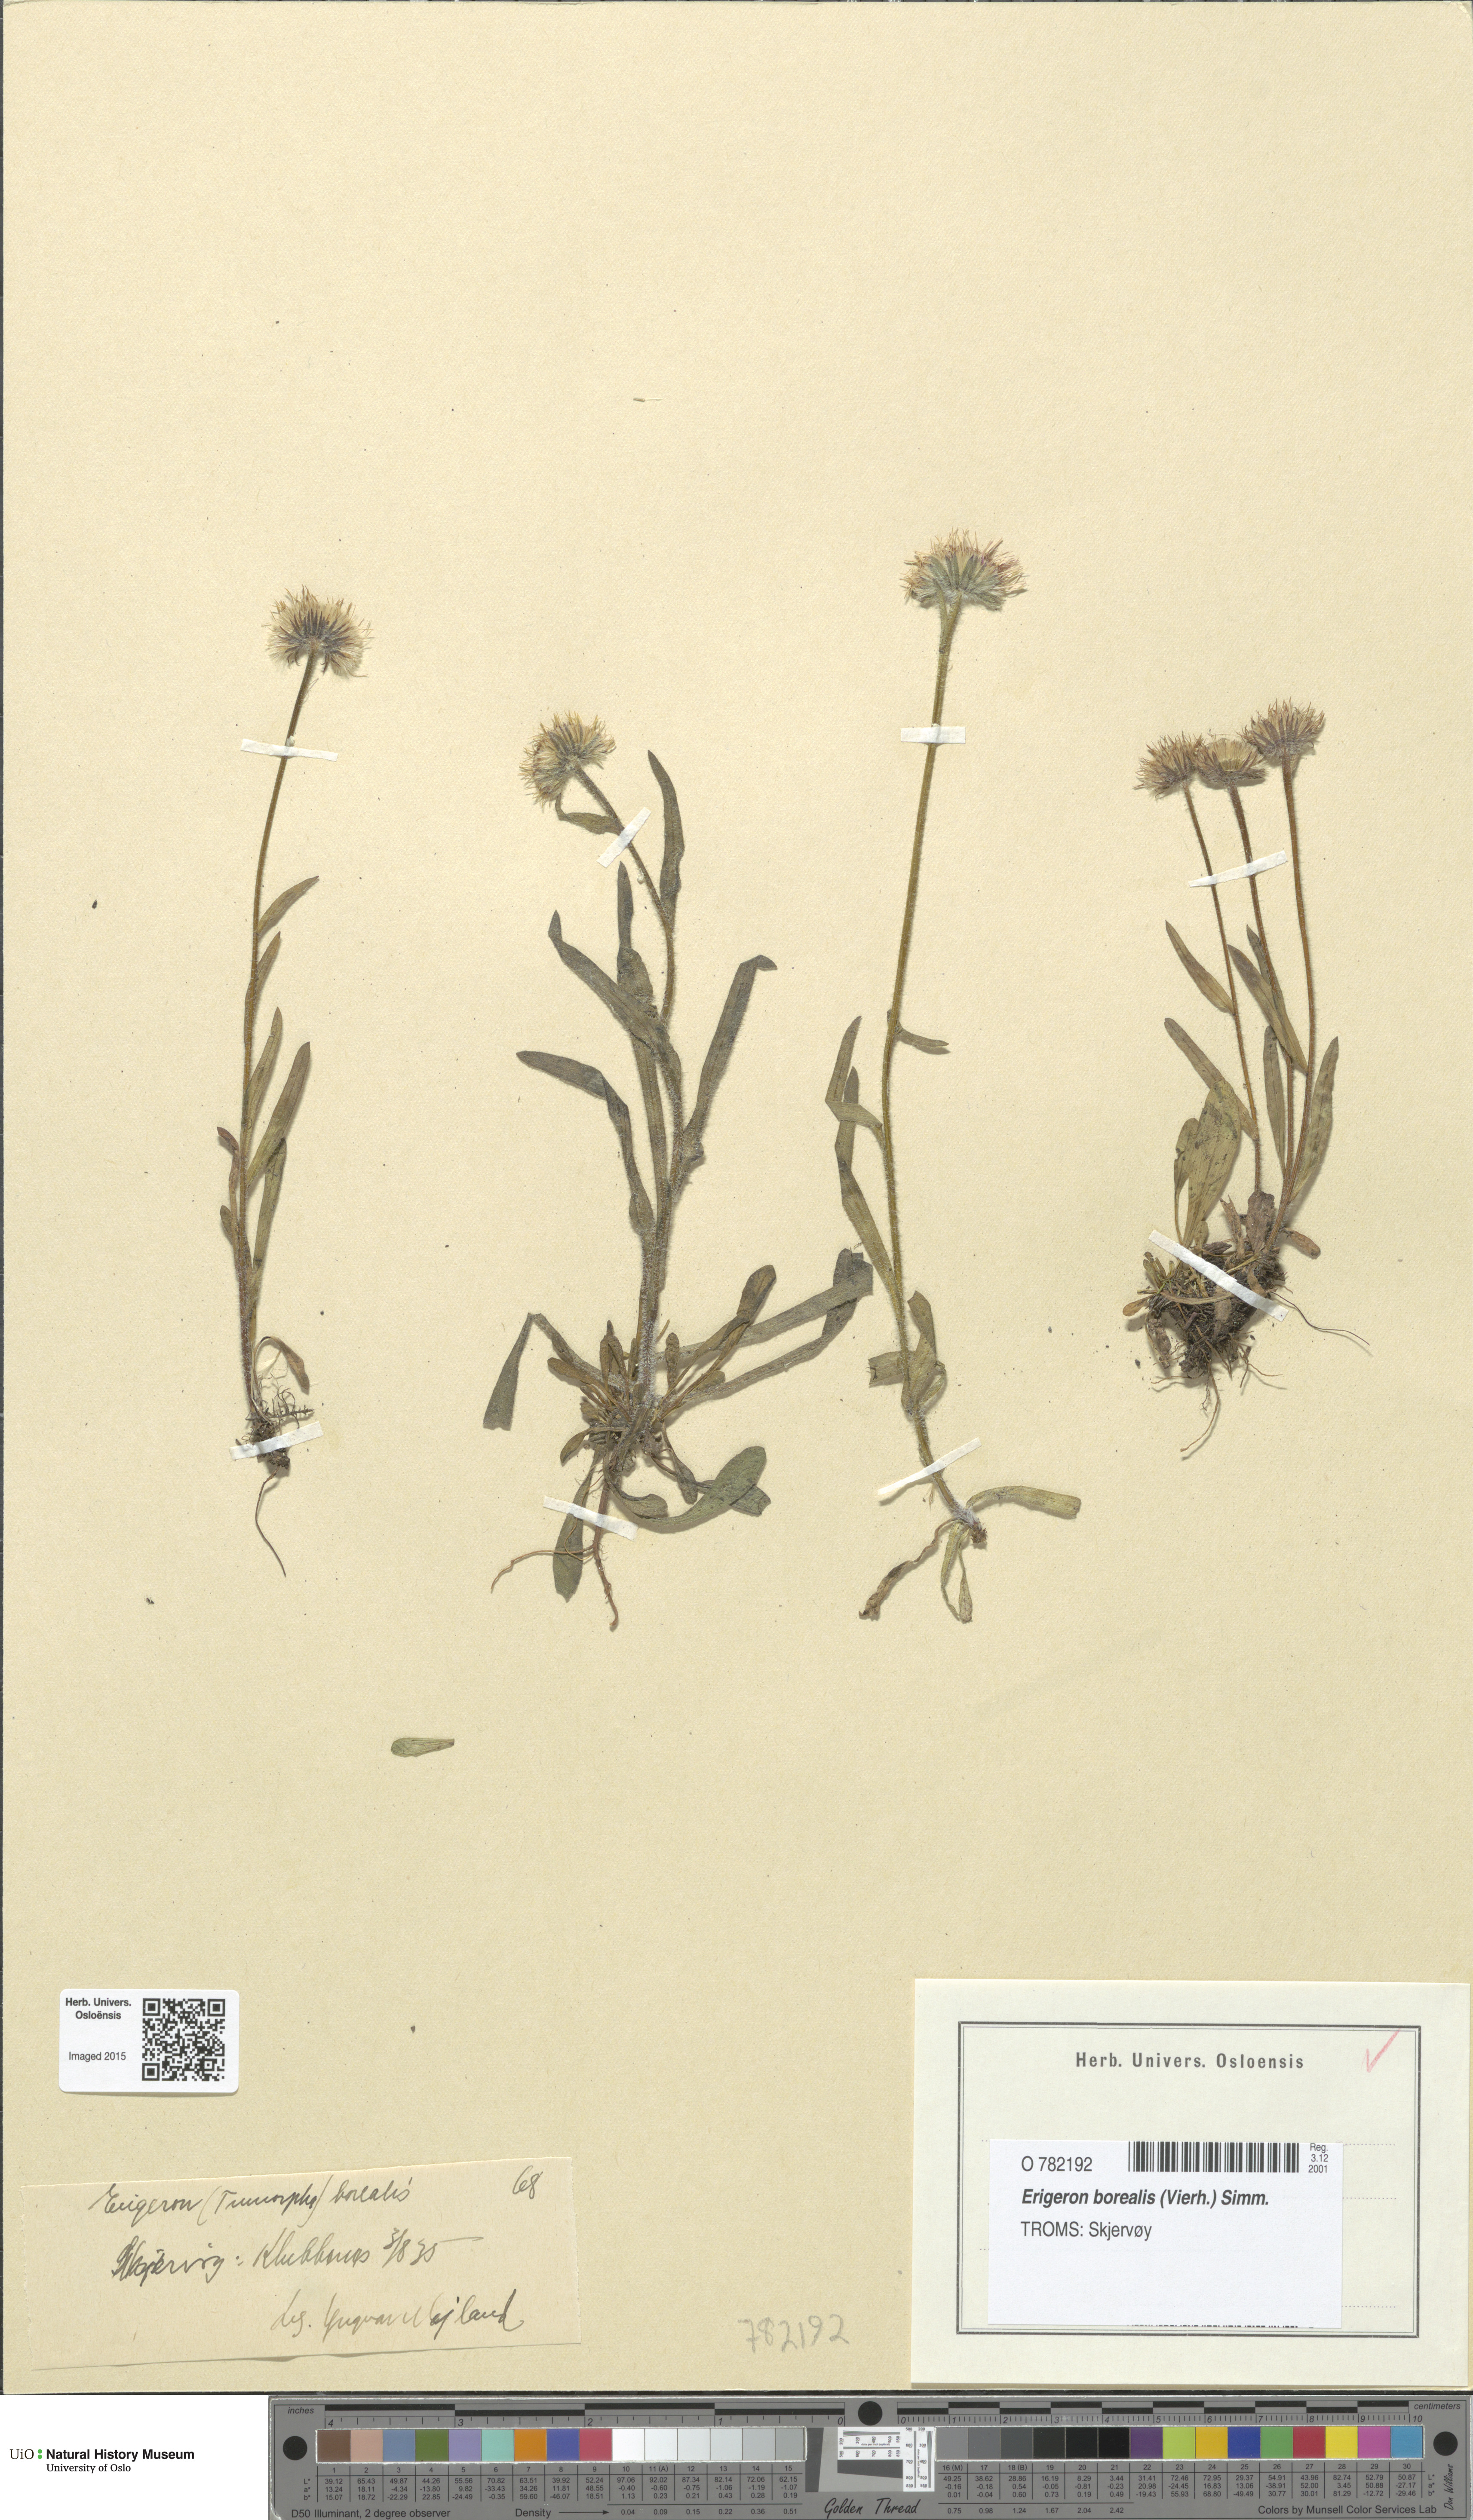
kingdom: Plantae
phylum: Tracheophyta
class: Magnoliopsida
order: Asterales
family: Asteraceae
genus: Erigeron
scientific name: Erigeron borealis
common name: Alpine fleabane
